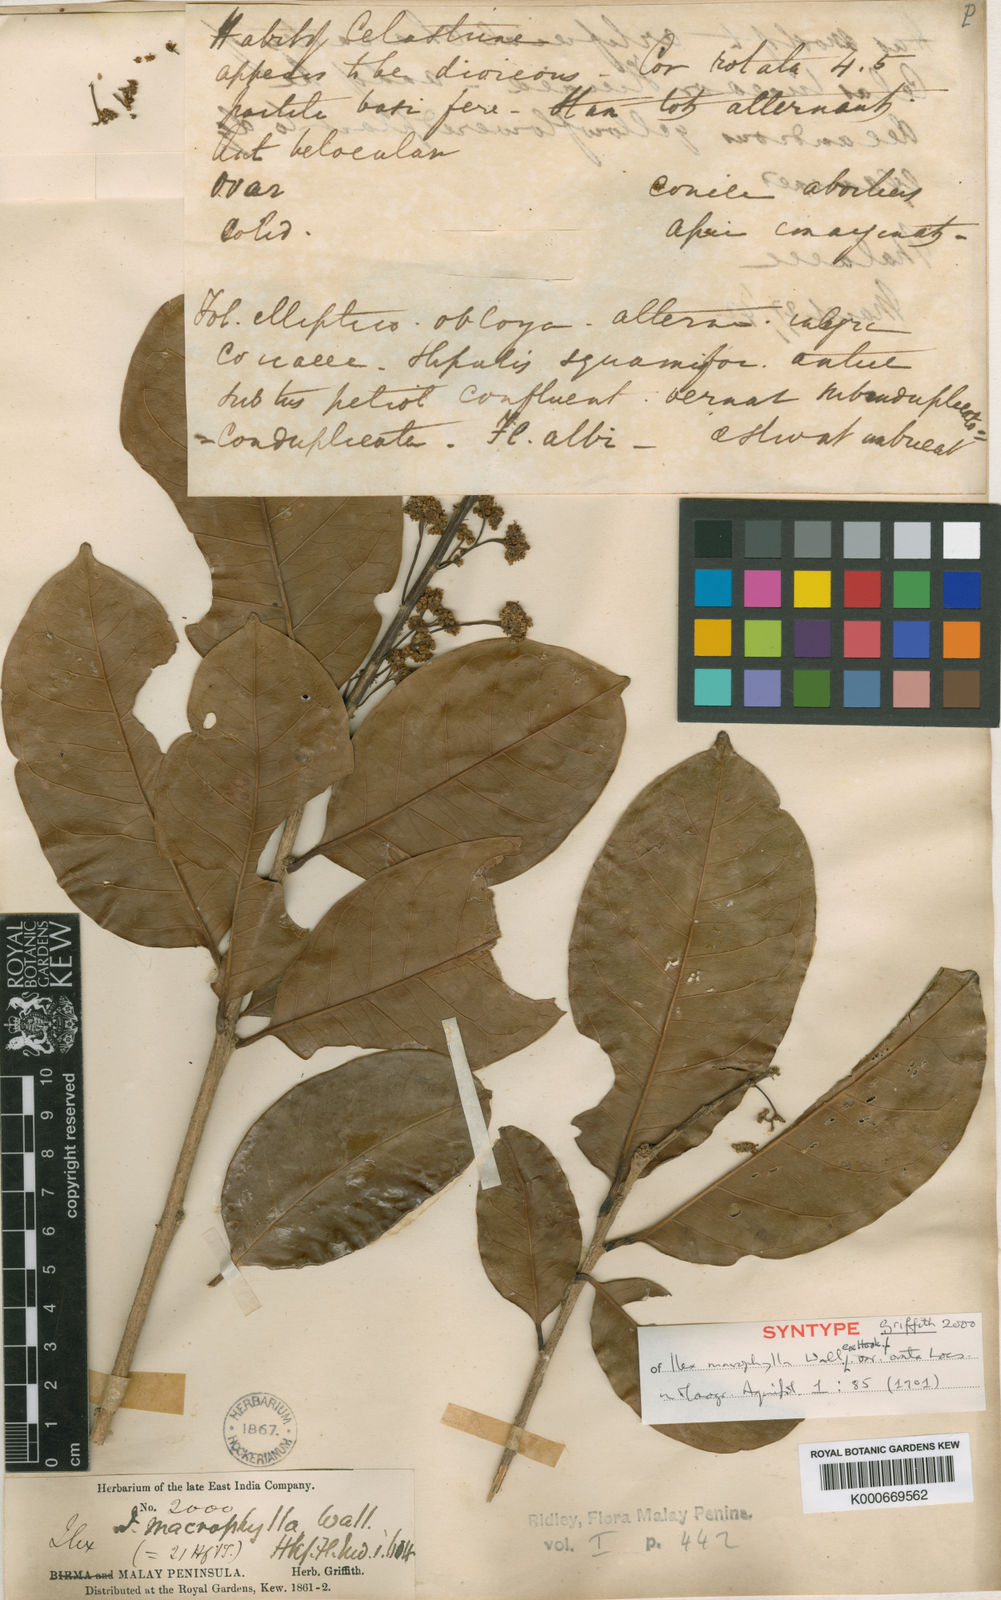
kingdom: Plantae
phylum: Tracheophyta
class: Magnoliopsida
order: Aquifoliales
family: Aquifoliaceae
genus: Ilex
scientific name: Ilex
